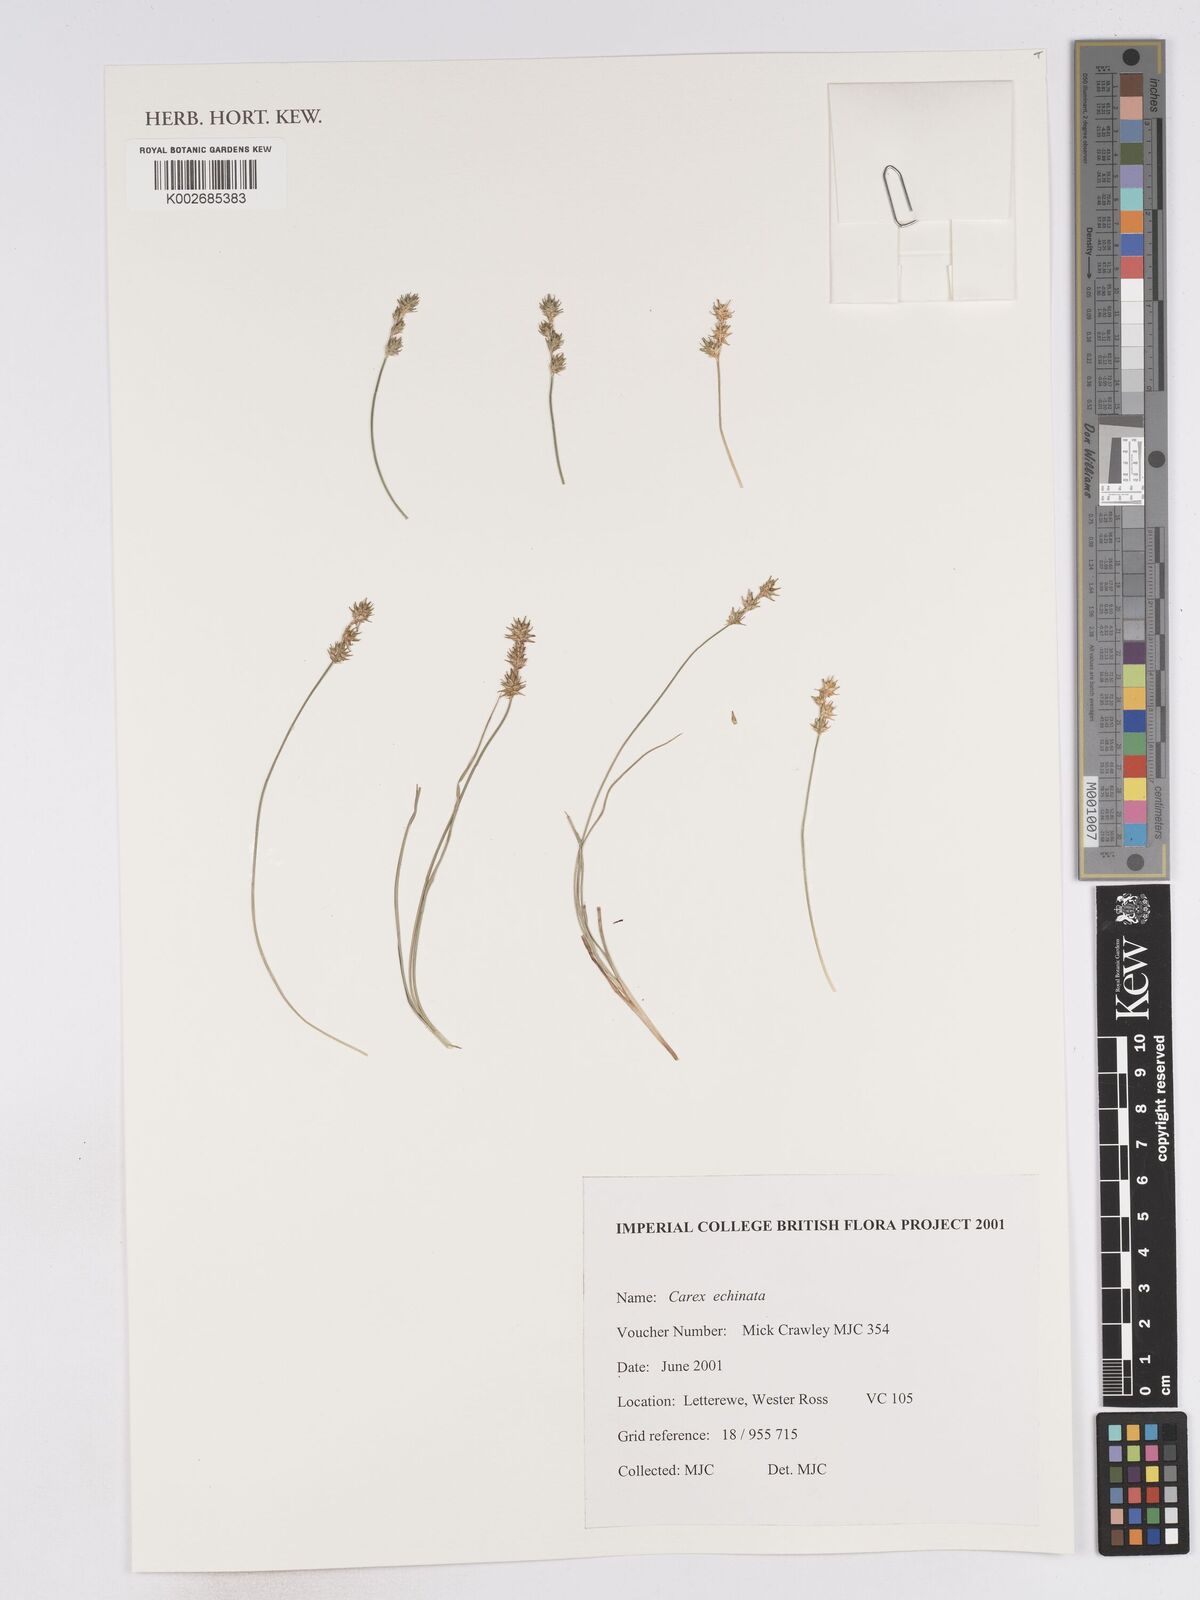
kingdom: Plantae
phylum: Tracheophyta
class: Liliopsida
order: Poales
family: Cyperaceae
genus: Carex
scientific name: Carex echinata
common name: Star sedge
